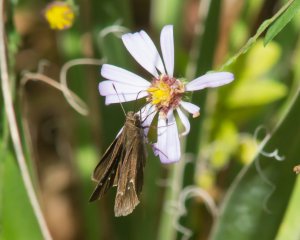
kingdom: Animalia
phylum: Arthropoda
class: Insecta
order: Lepidoptera
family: Hesperiidae
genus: Lerema
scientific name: Lerema accius
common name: Clouded Skipper
